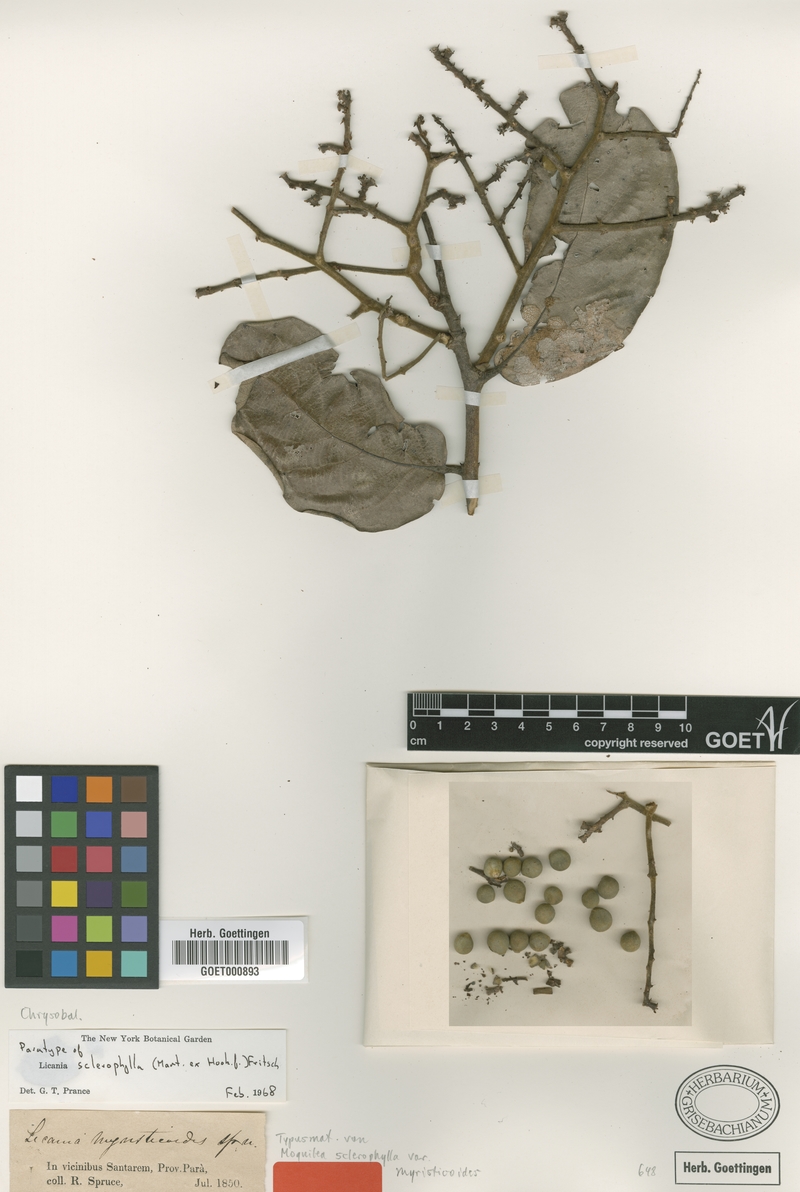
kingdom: Plantae
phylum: Tracheophyta
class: Magnoliopsida
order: Malpighiales
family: Chrysobalanaceae
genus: Leptobalanus
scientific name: Leptobalanus sclerophyllus
